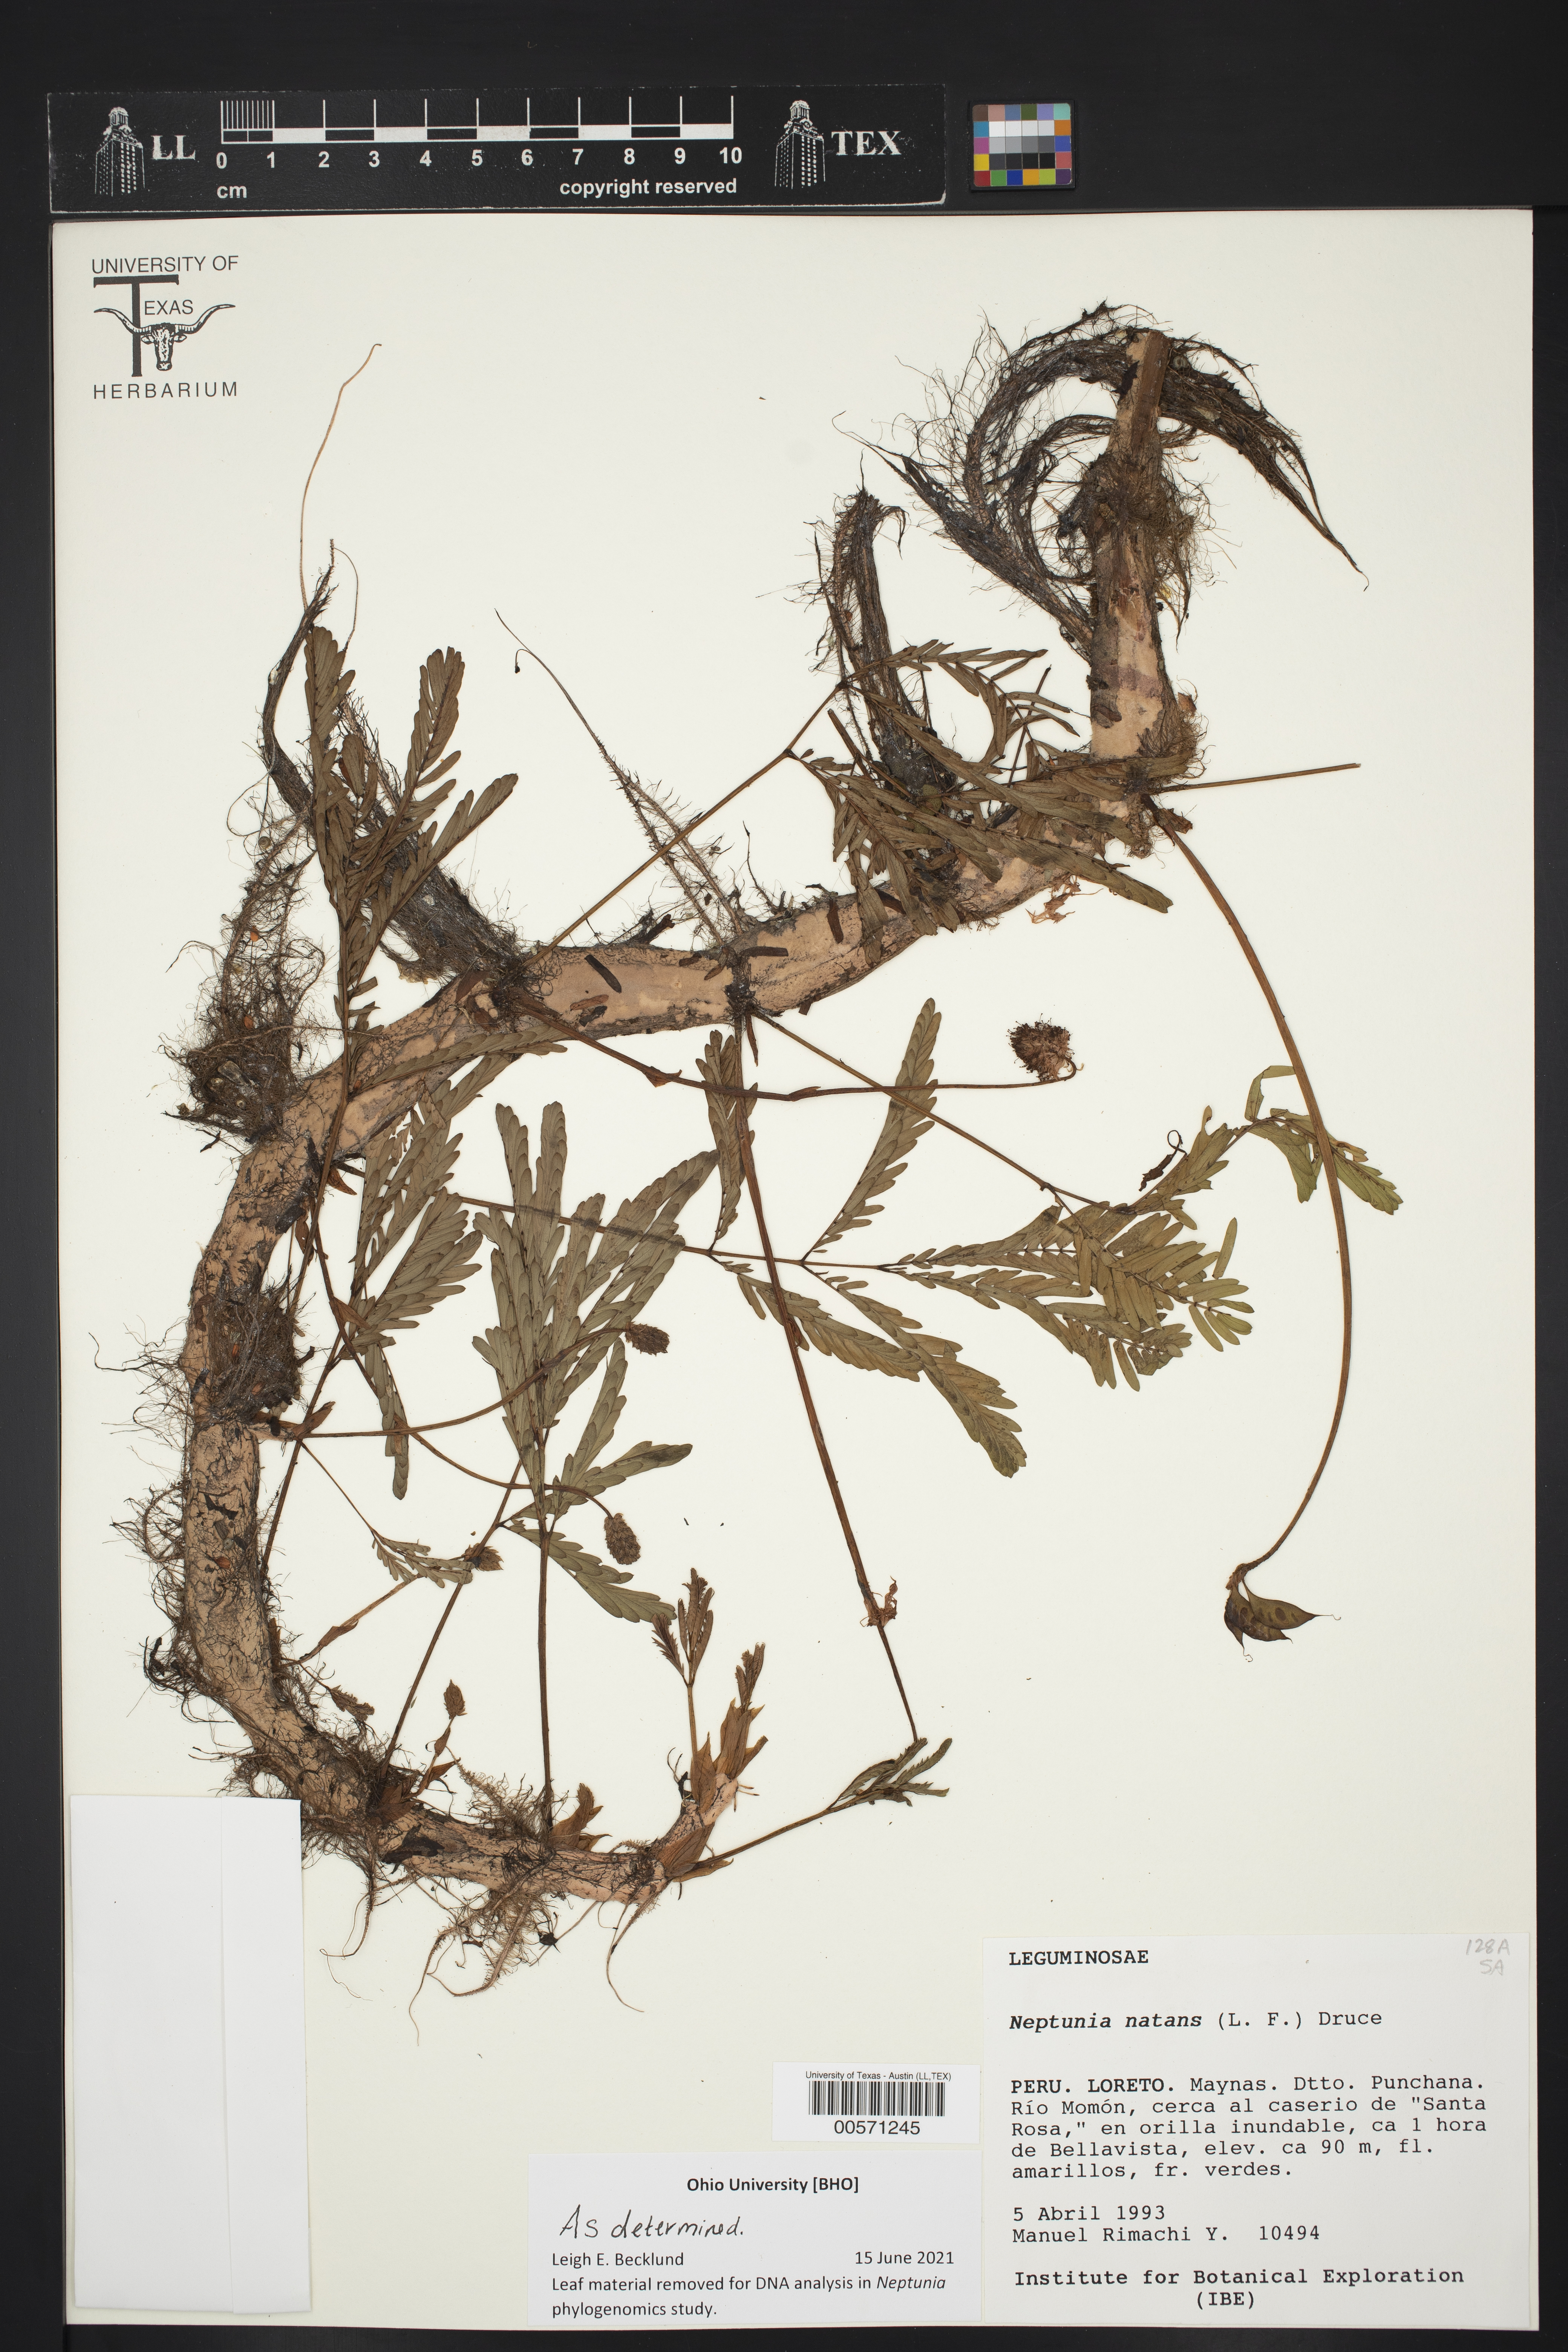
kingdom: Plantae
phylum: Tracheophyta
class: Magnoliopsida
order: Fabales
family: Fabaceae
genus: Neptunia
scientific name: Neptunia prostrata
